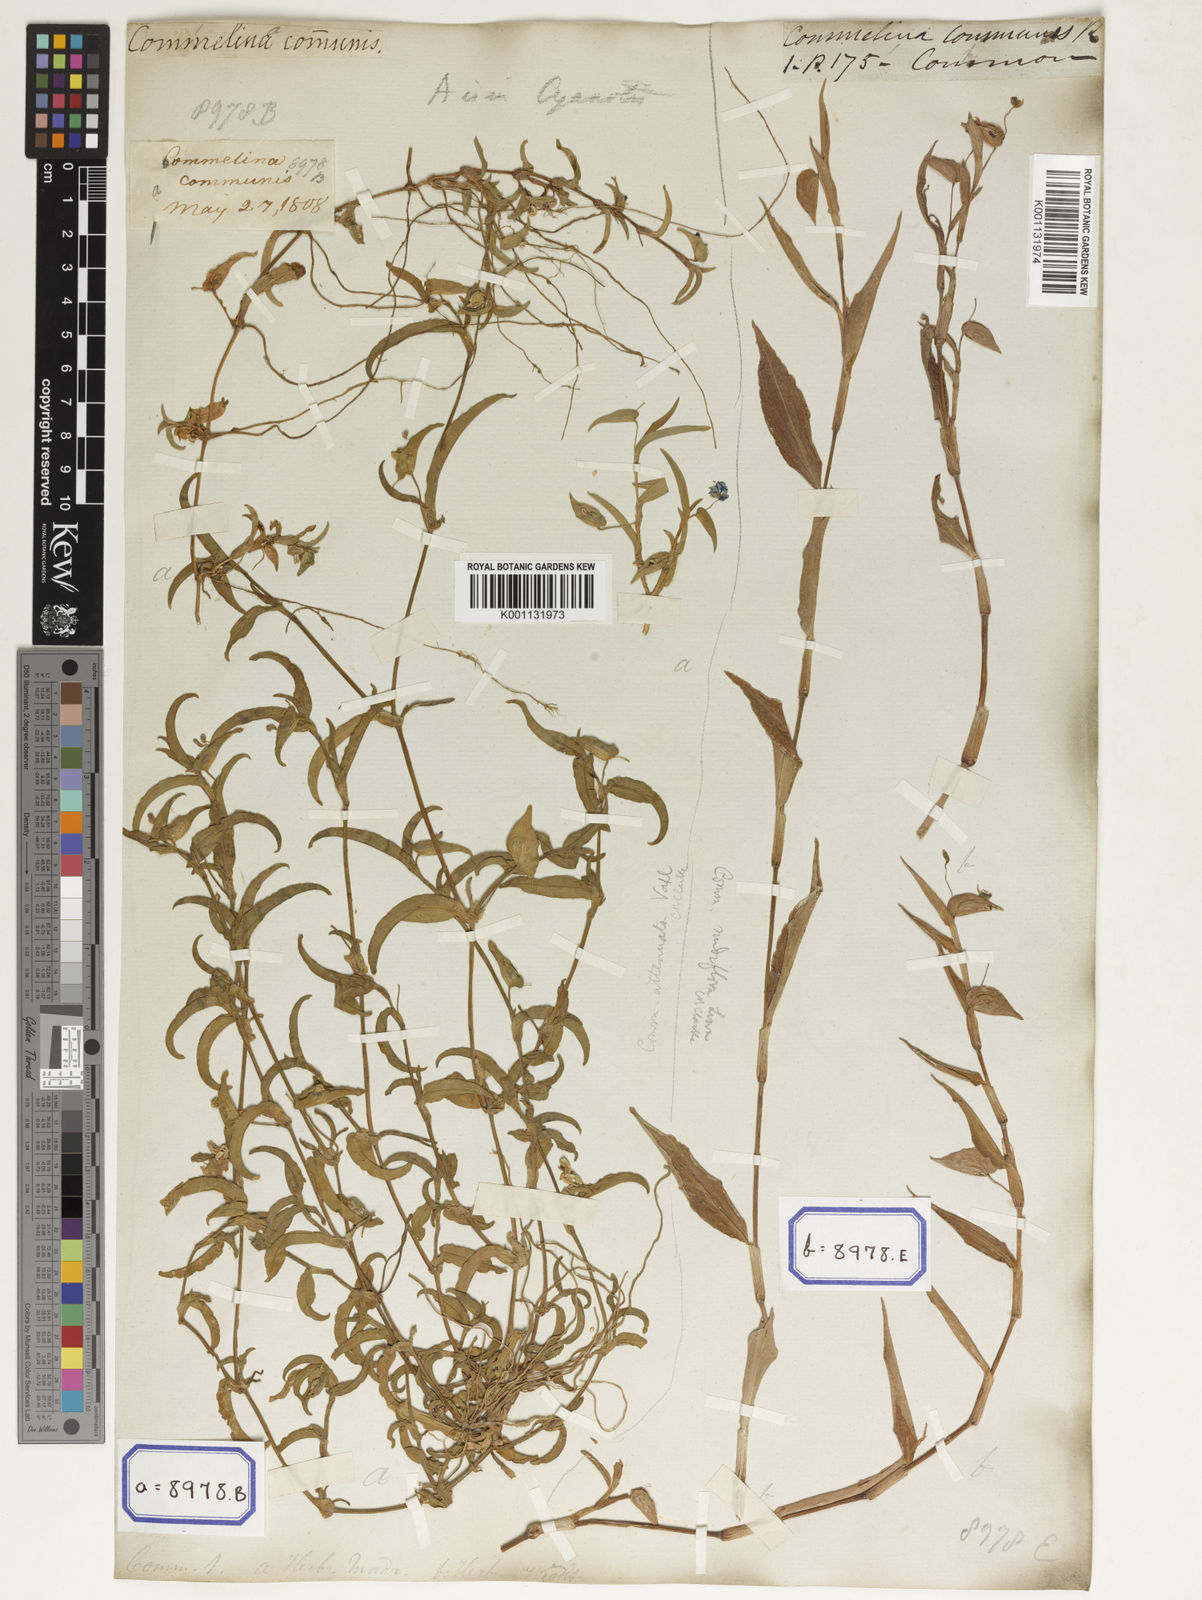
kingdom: Plantae
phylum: Tracheophyta
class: Liliopsida
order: Commelinales
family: Commelinaceae
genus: Commelina
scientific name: Commelina communis
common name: Asiatic dayflower
